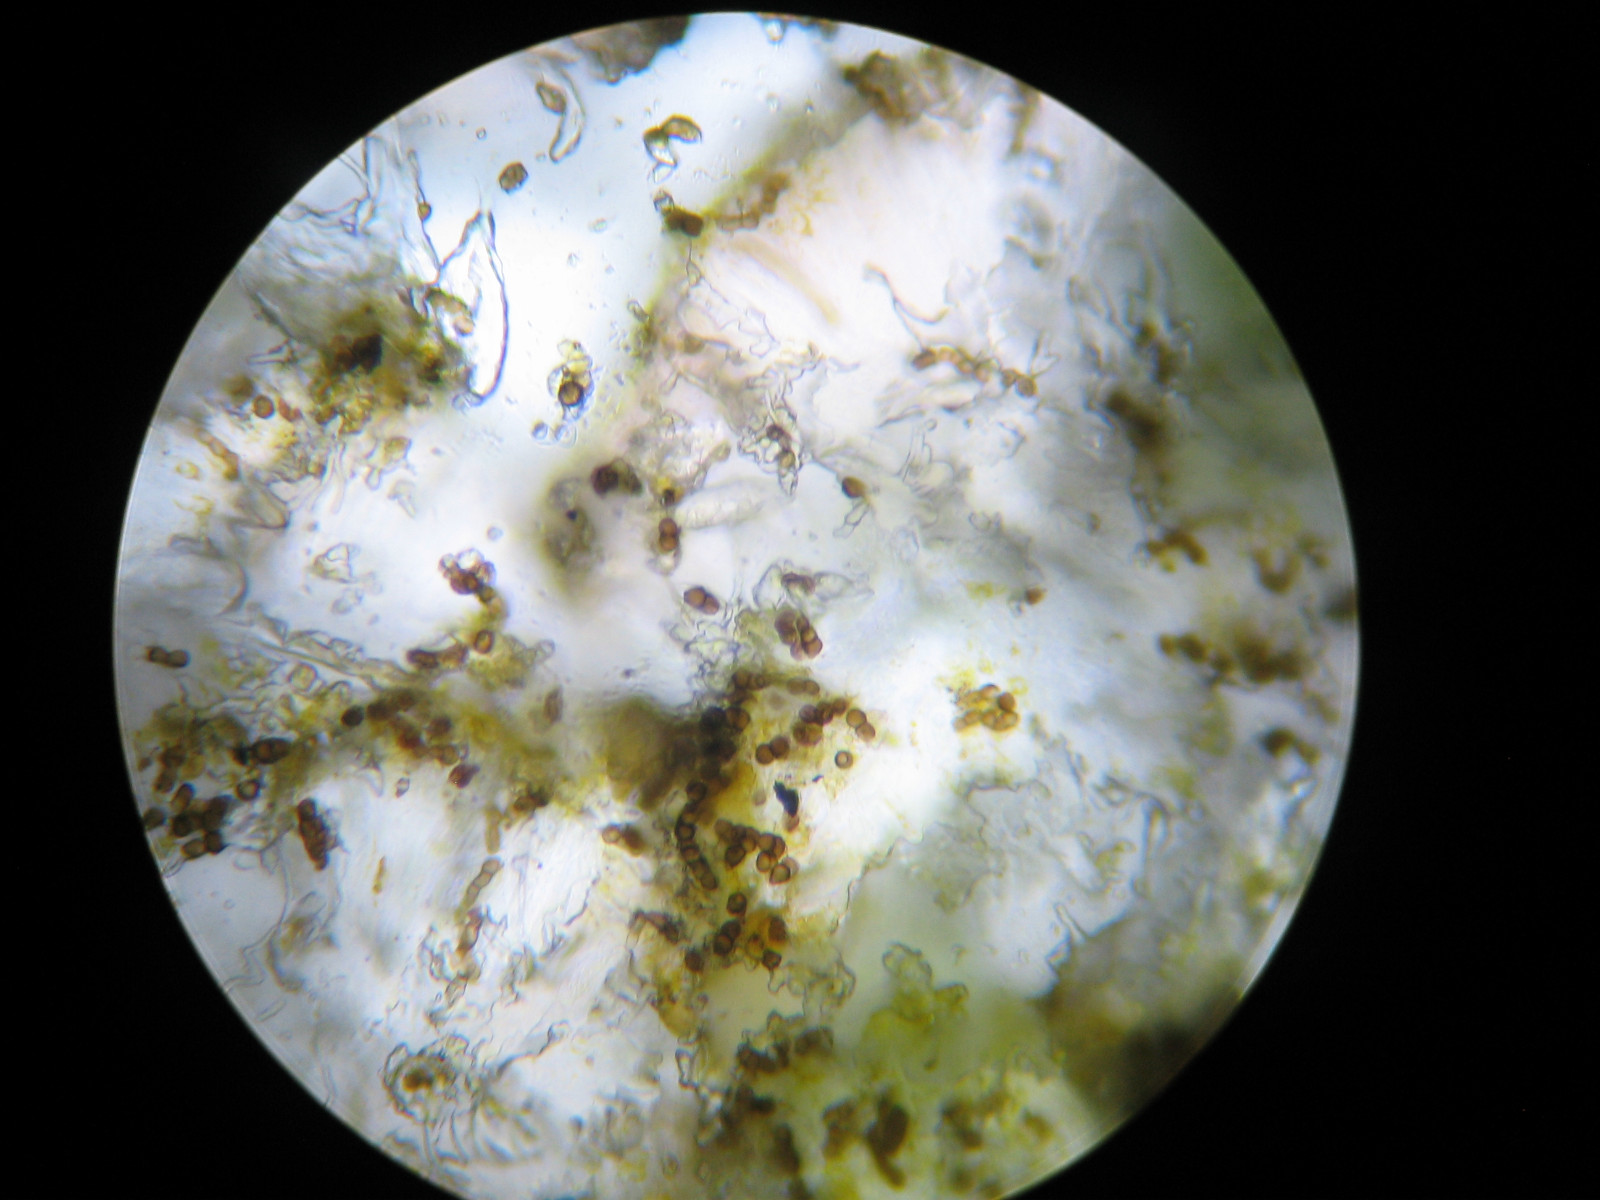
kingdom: Fungi
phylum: Ascomycota
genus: Intralichen
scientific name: Intralichen christiansenii
